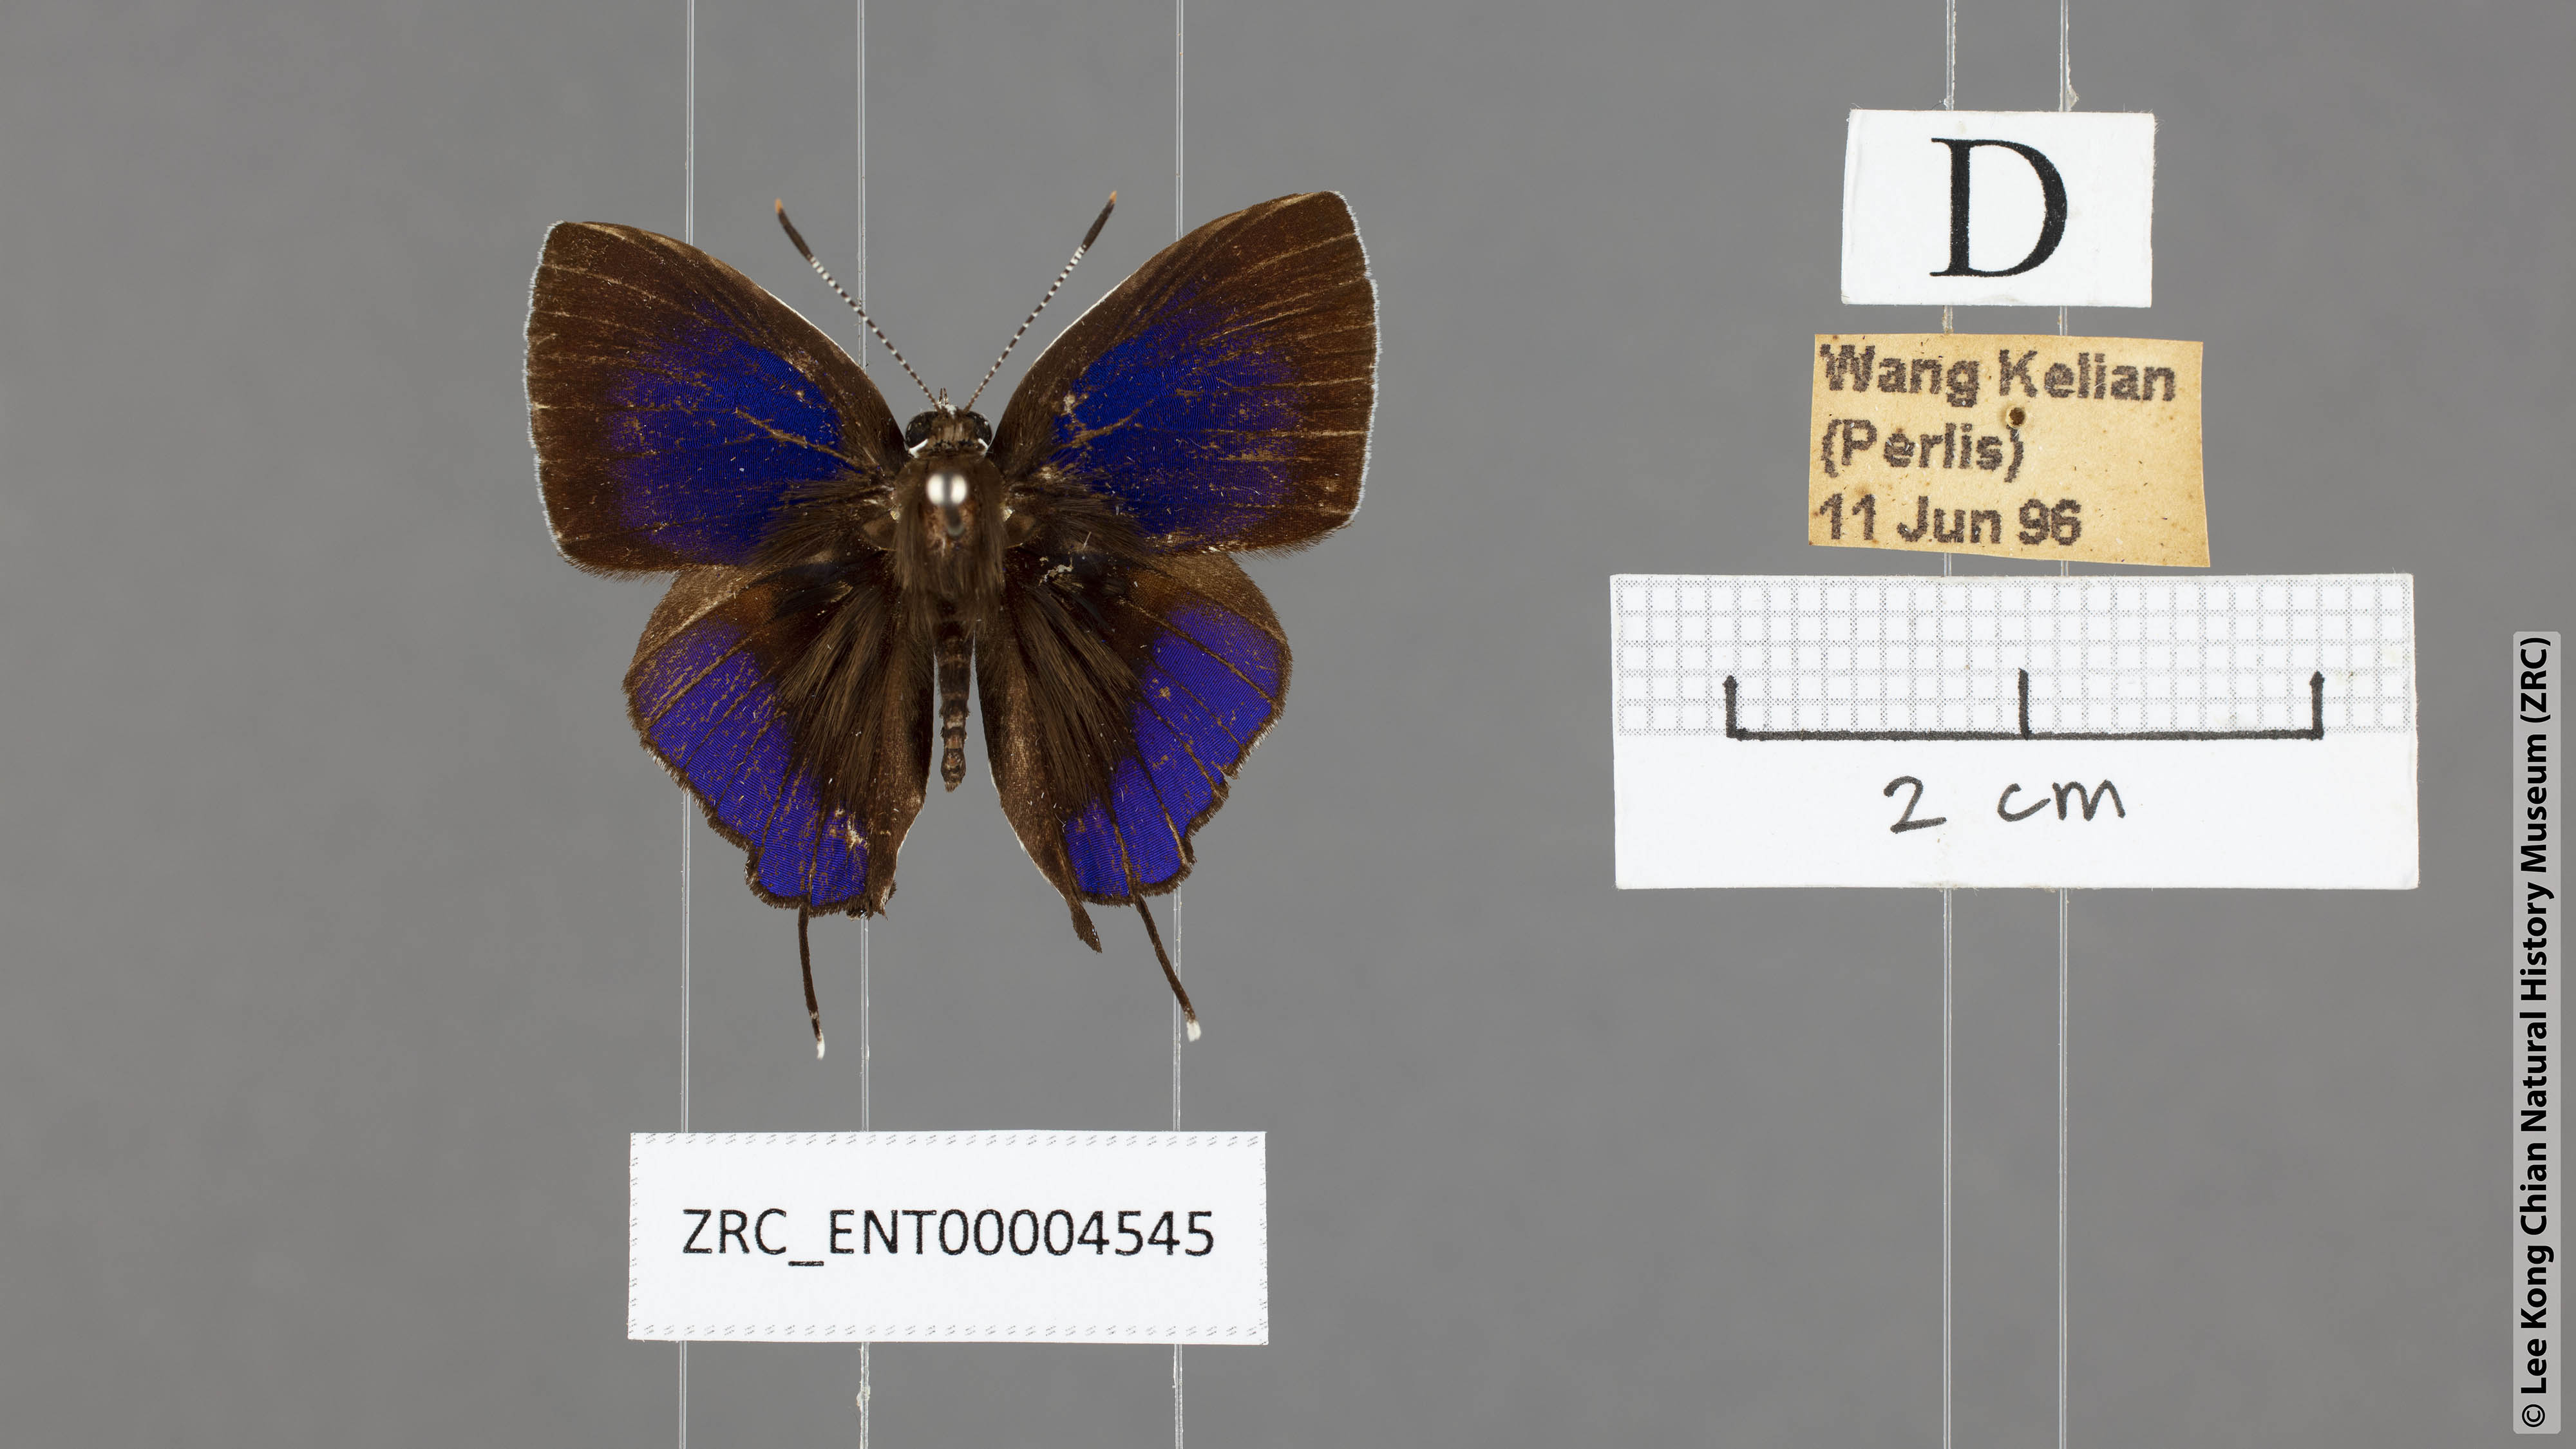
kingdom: Animalia
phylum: Arthropoda
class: Insecta
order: Lepidoptera
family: Lycaenidae
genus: Sithon
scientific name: Sithon nedymond
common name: Plush
